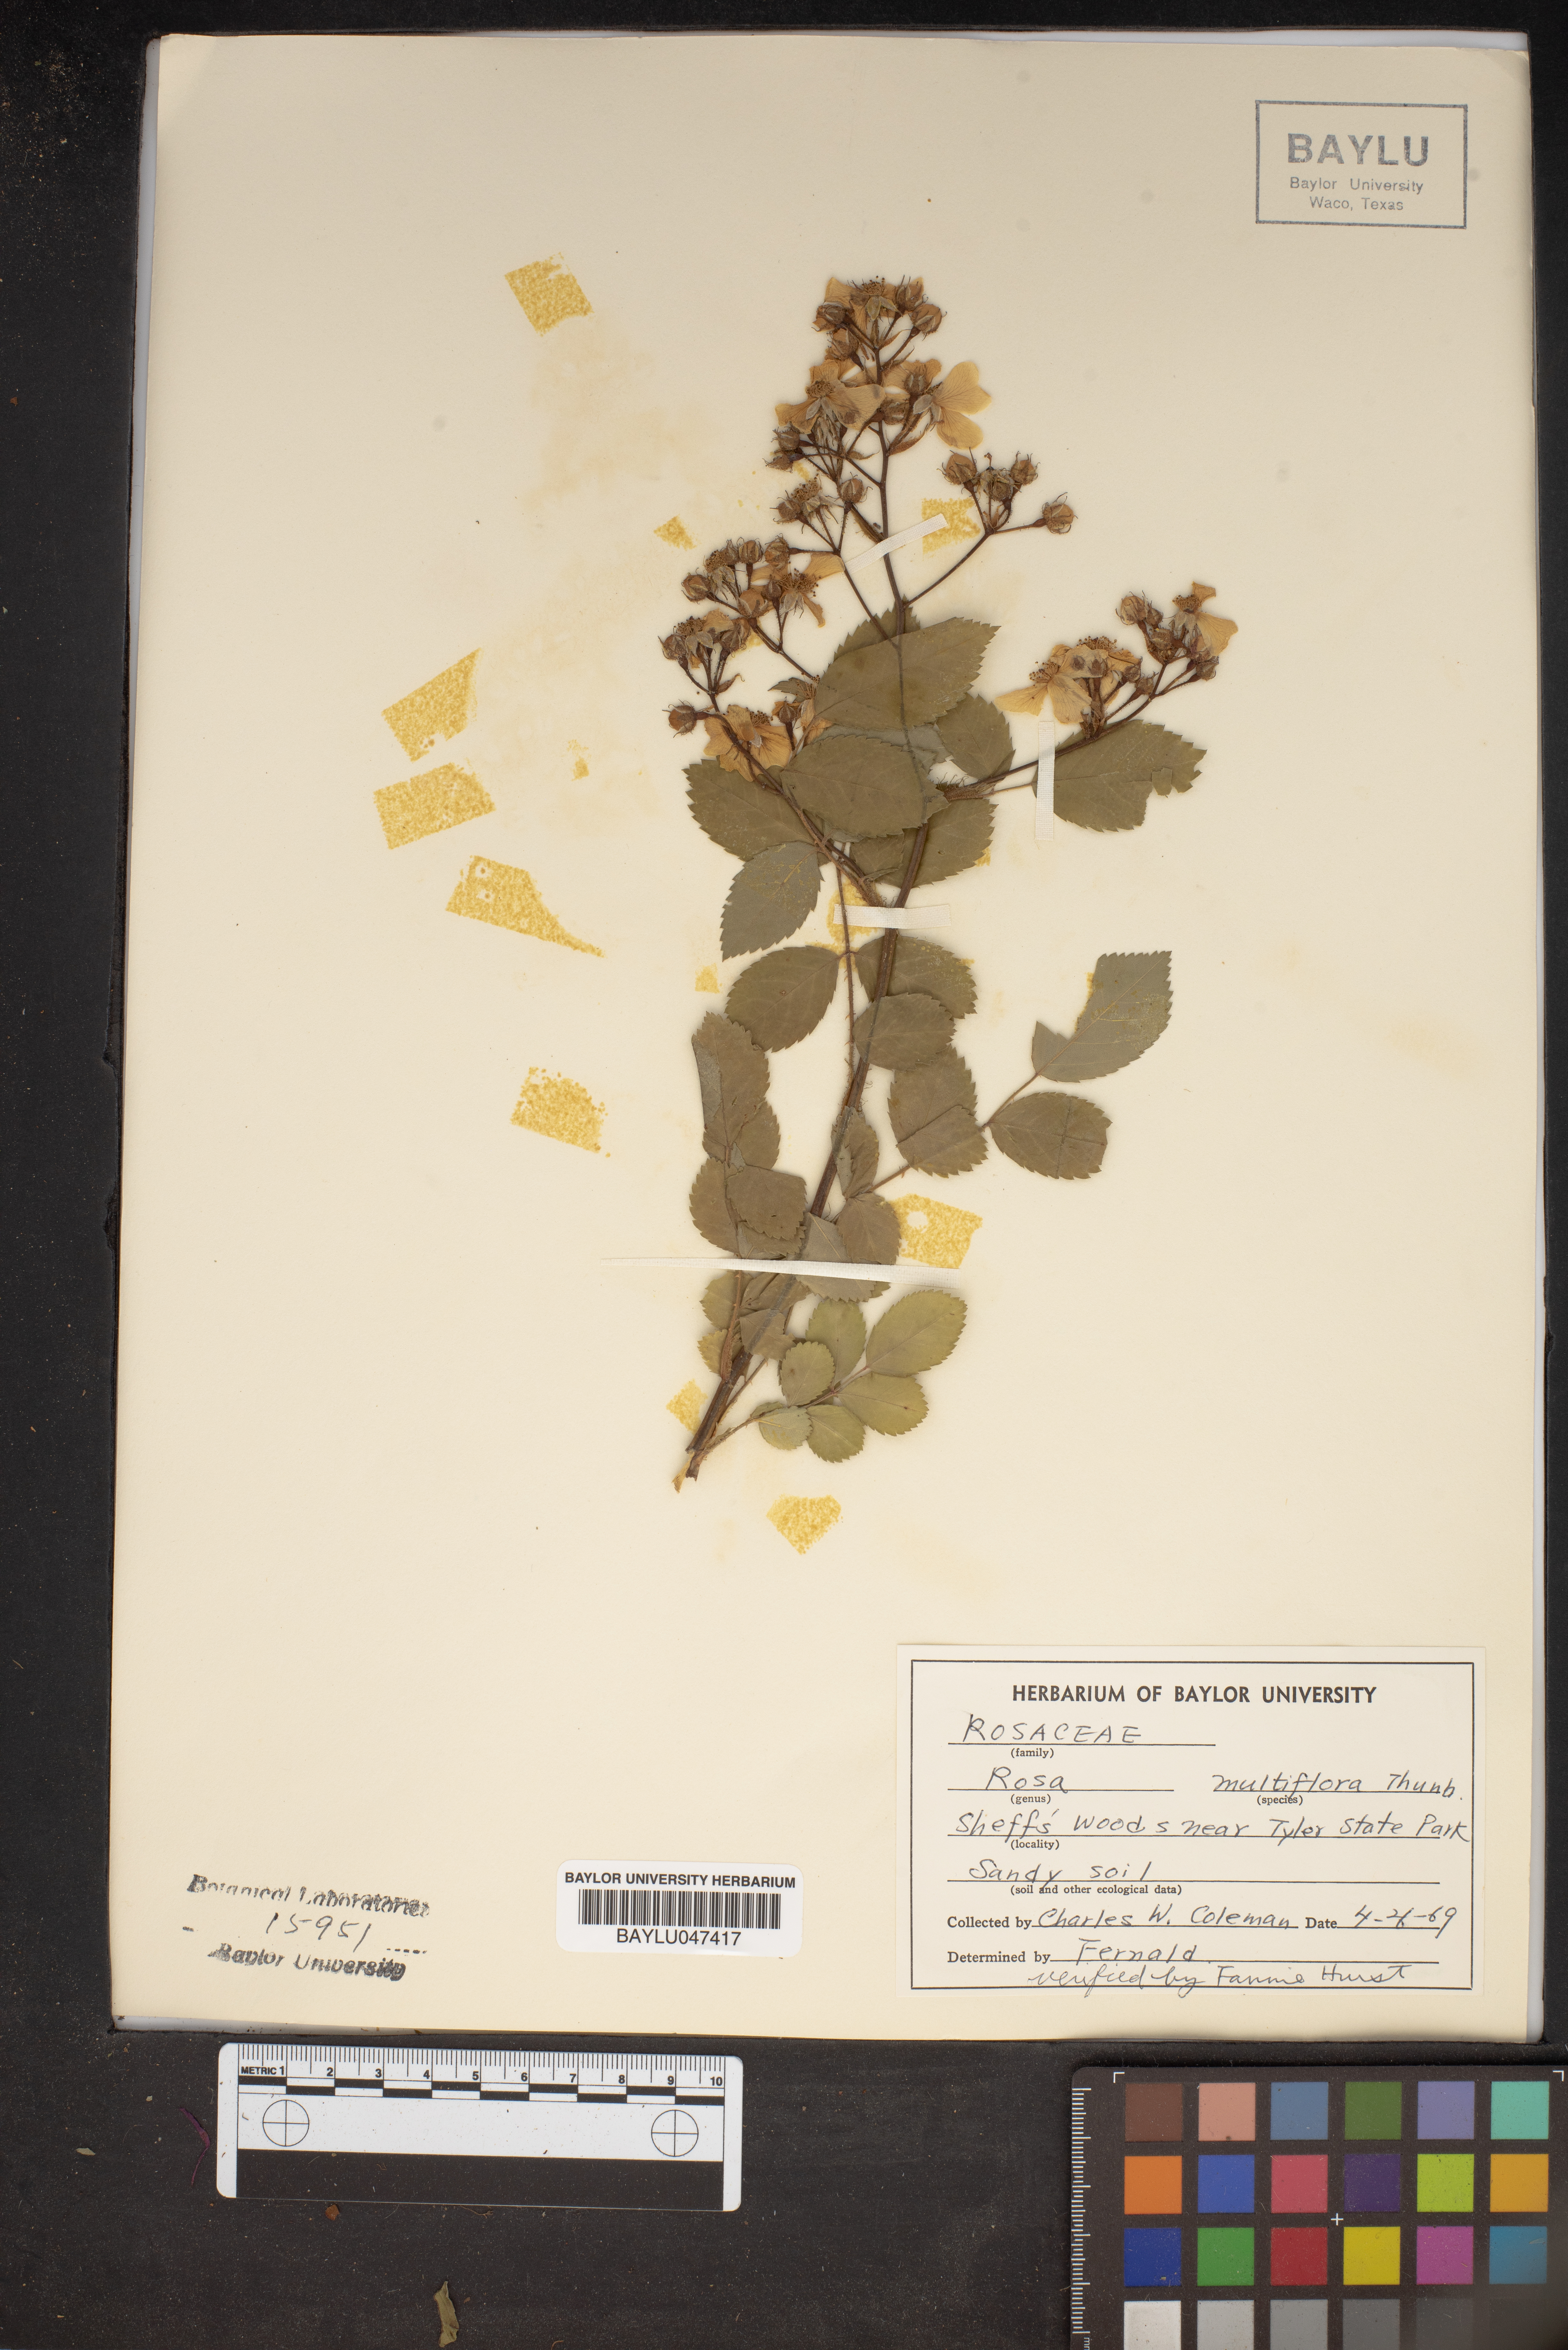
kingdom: Plantae
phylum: Tracheophyta
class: Magnoliopsida
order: Rosales
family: Rosaceae
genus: Rosa
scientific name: Rosa multiflora
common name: Multiflora rose
